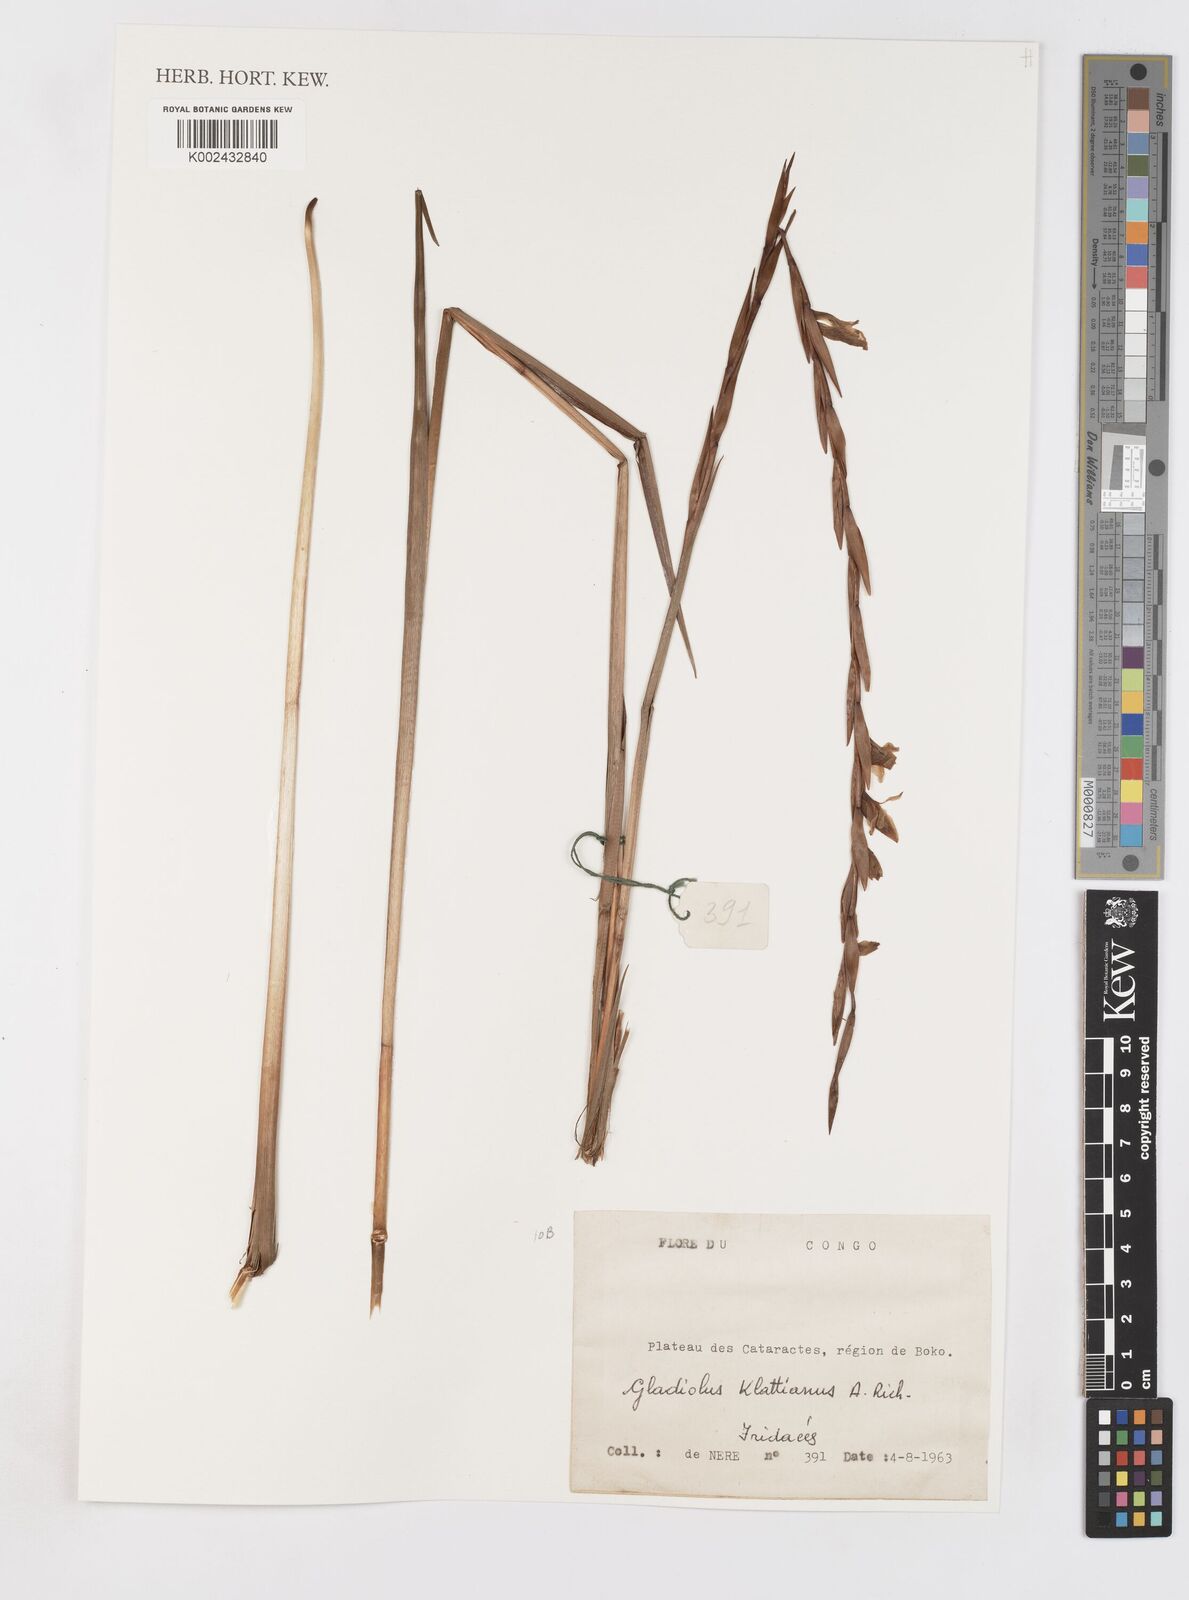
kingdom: Plantae
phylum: Tracheophyta
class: Liliopsida
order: Asparagales
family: Iridaceae
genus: Gladiolus
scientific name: Gladiolus gregarius
